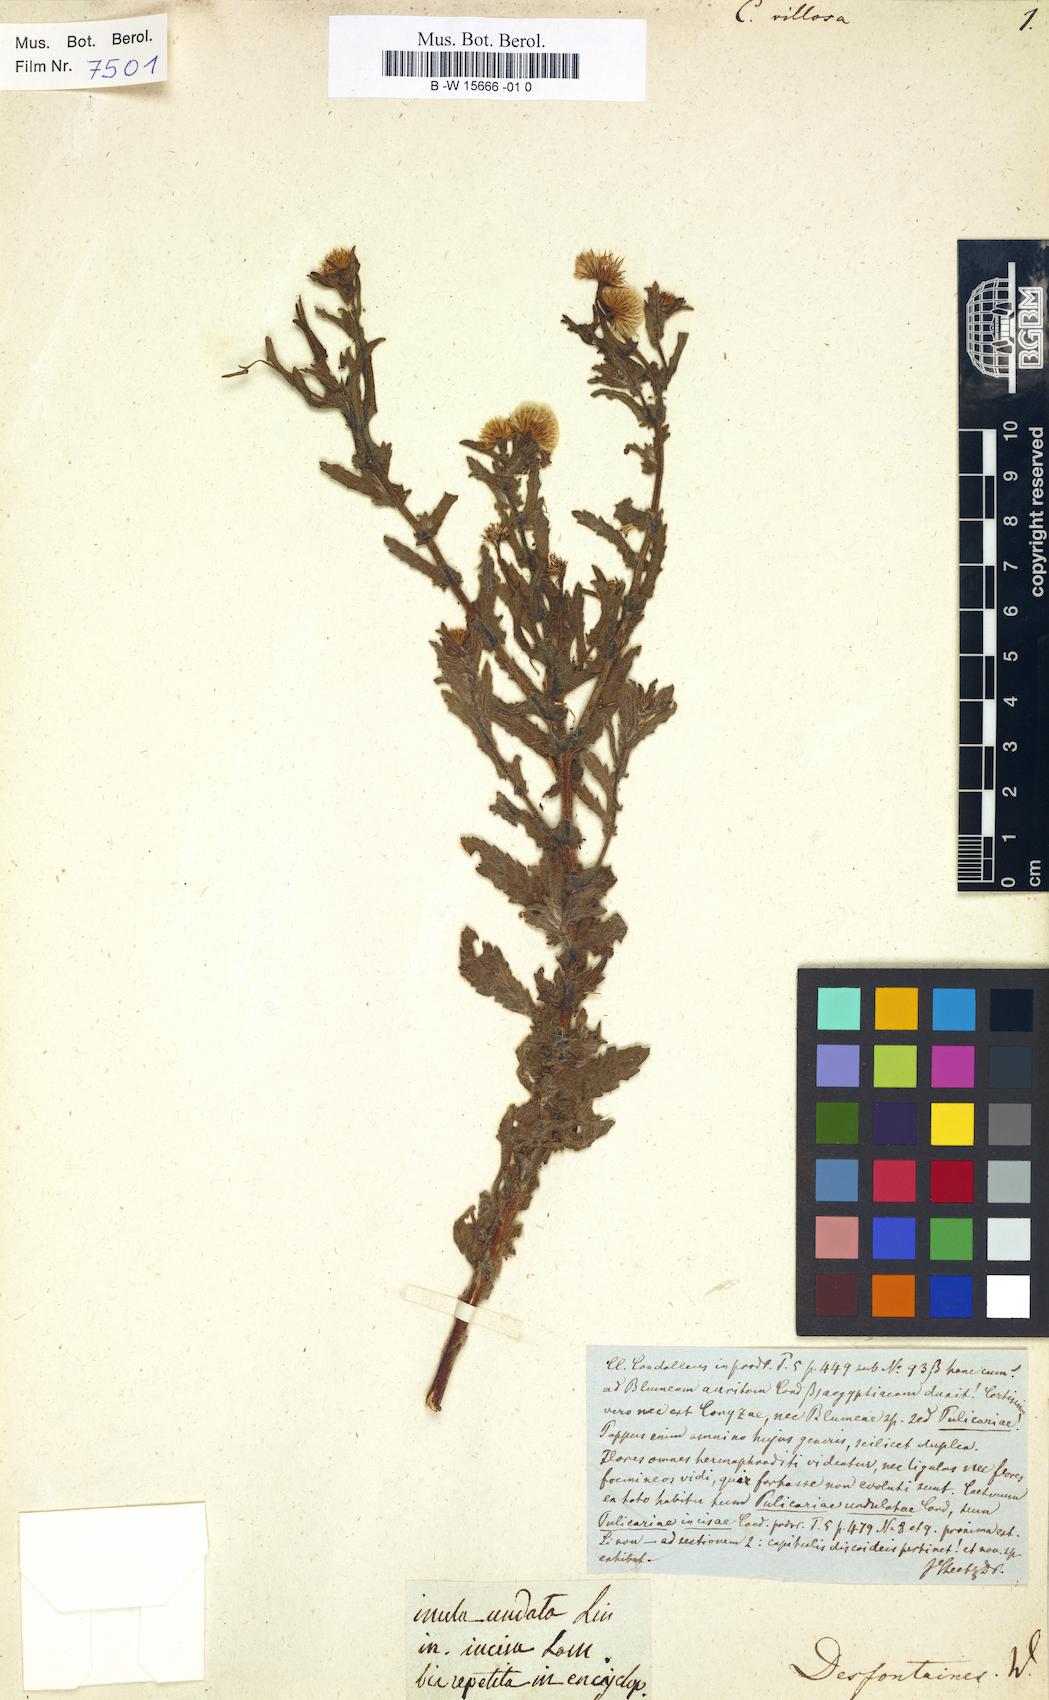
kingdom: Plantae
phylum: Tracheophyta
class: Magnoliopsida
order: Asterales
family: Asteraceae
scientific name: Asteraceae
